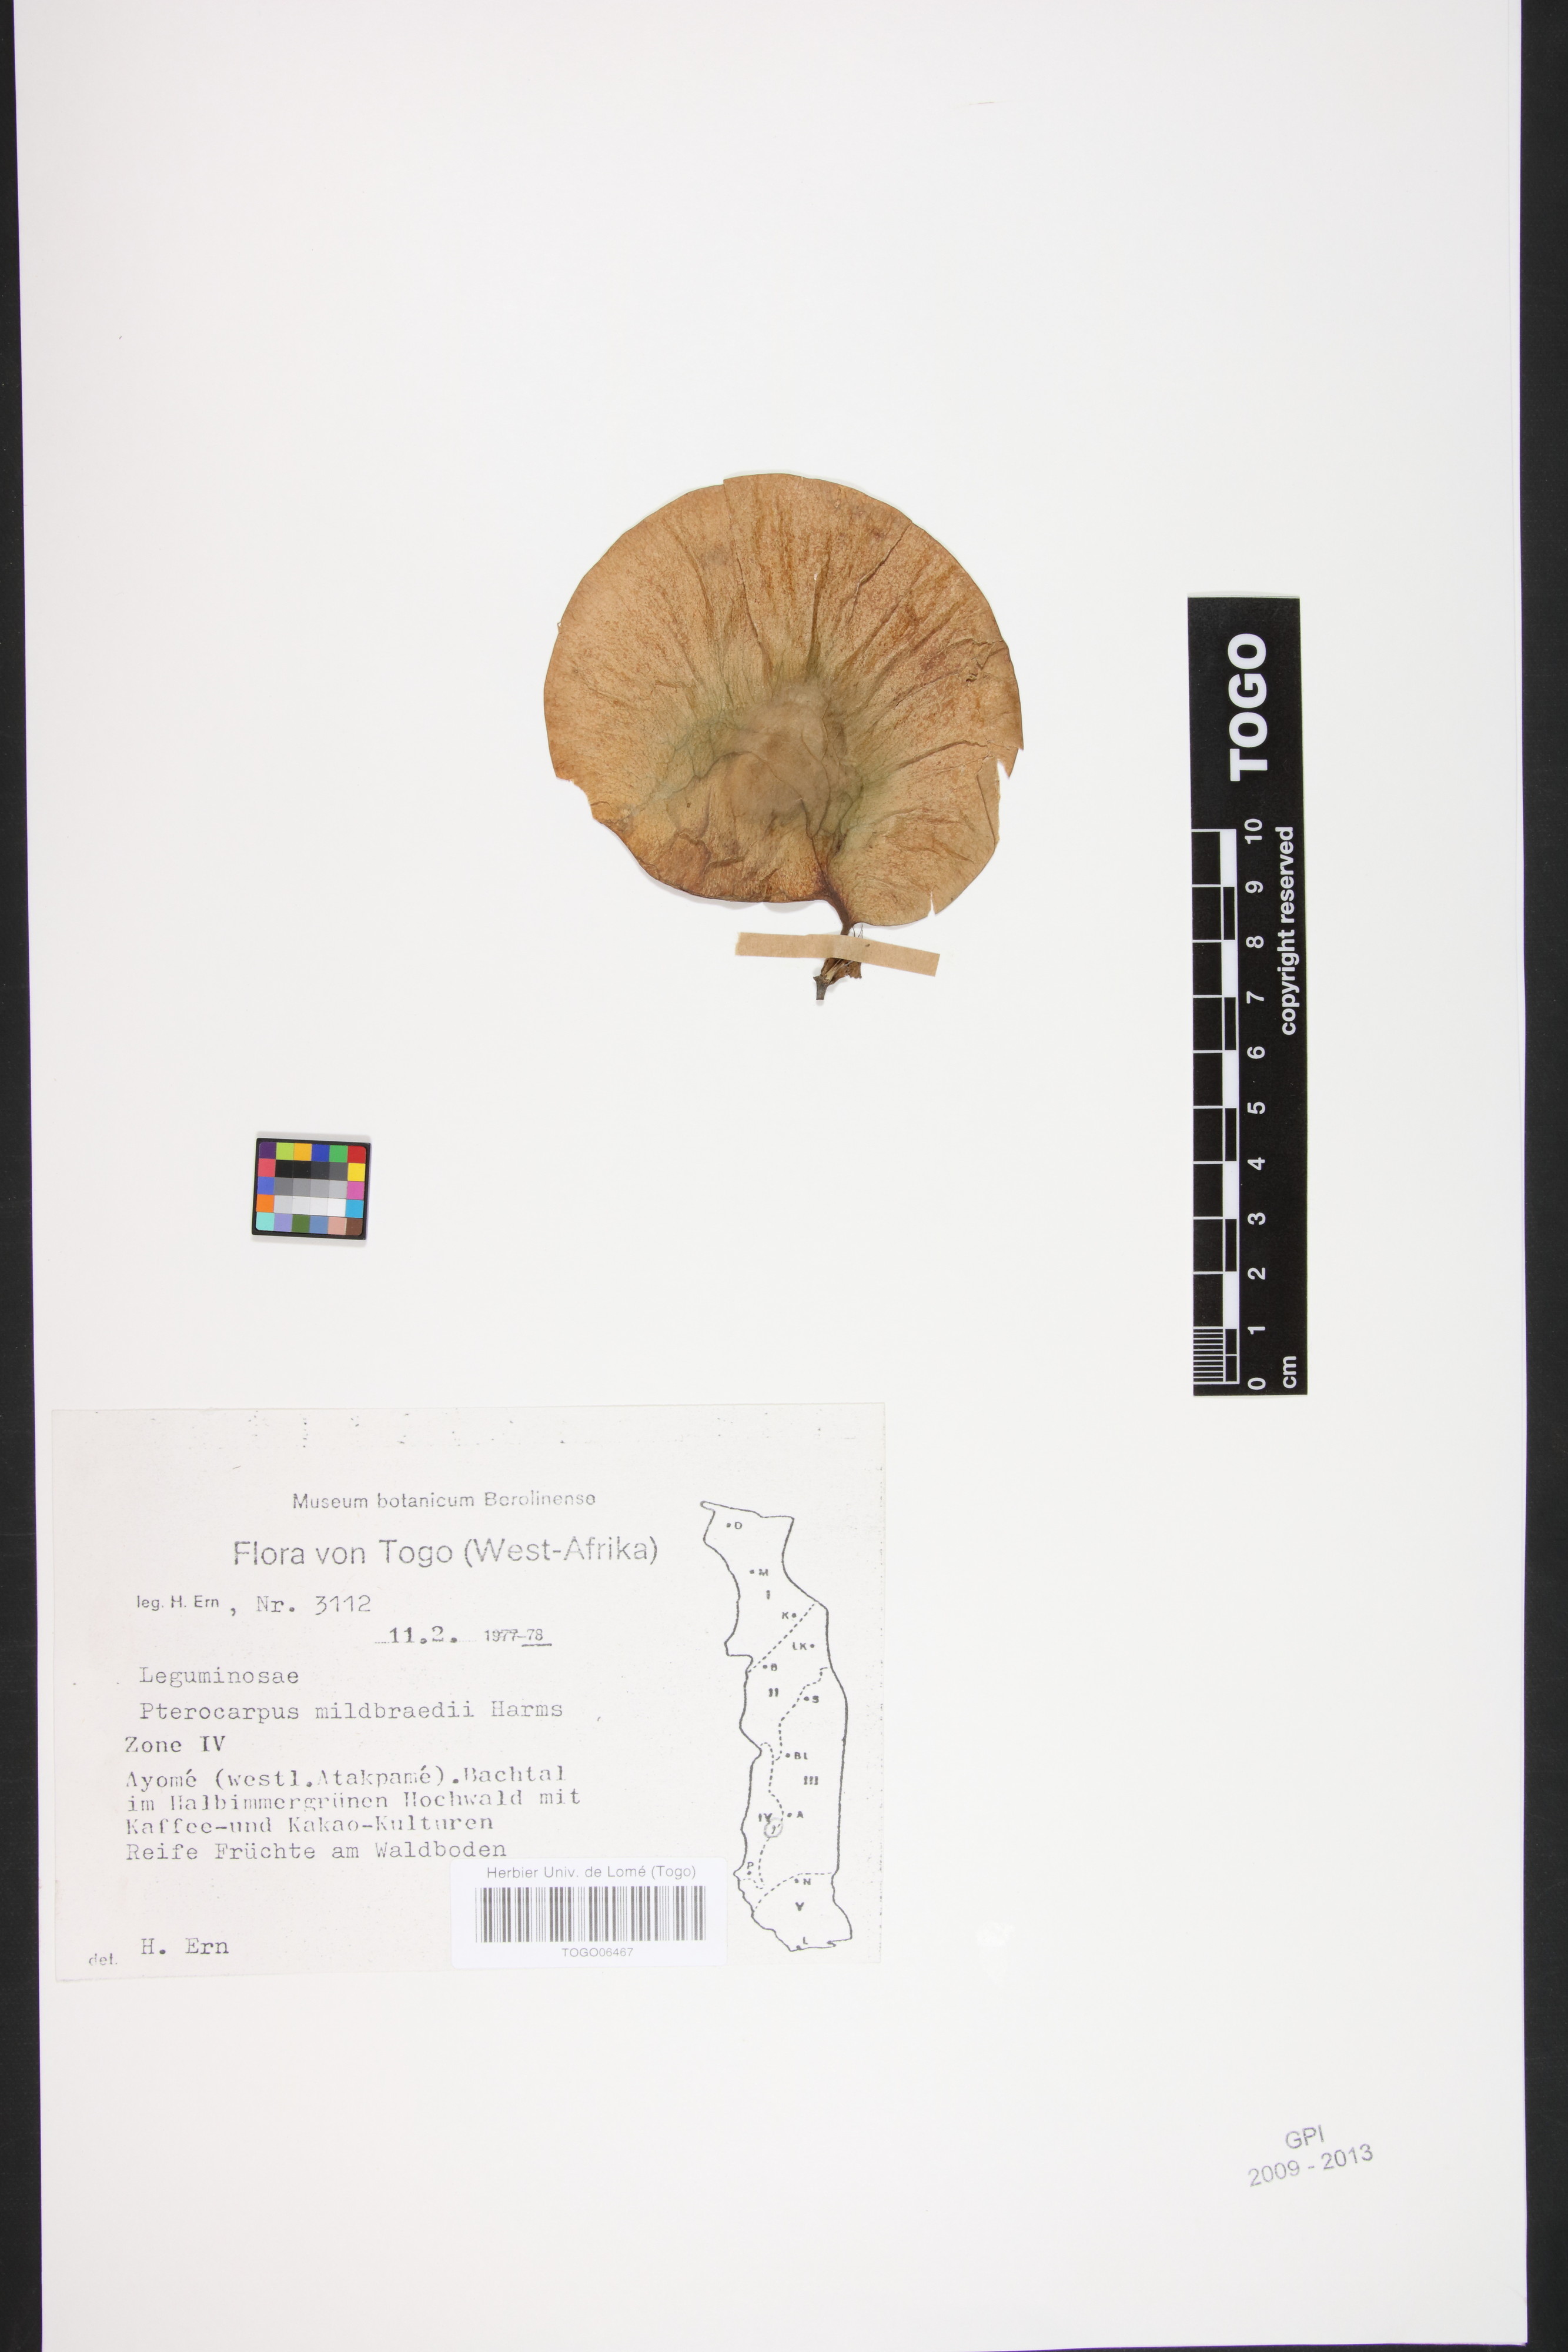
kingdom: Plantae
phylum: Tracheophyta
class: Magnoliopsida
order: Fabales
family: Fabaceae
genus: Pterocarpus
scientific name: Pterocarpus mildbraedii
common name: White padouk
